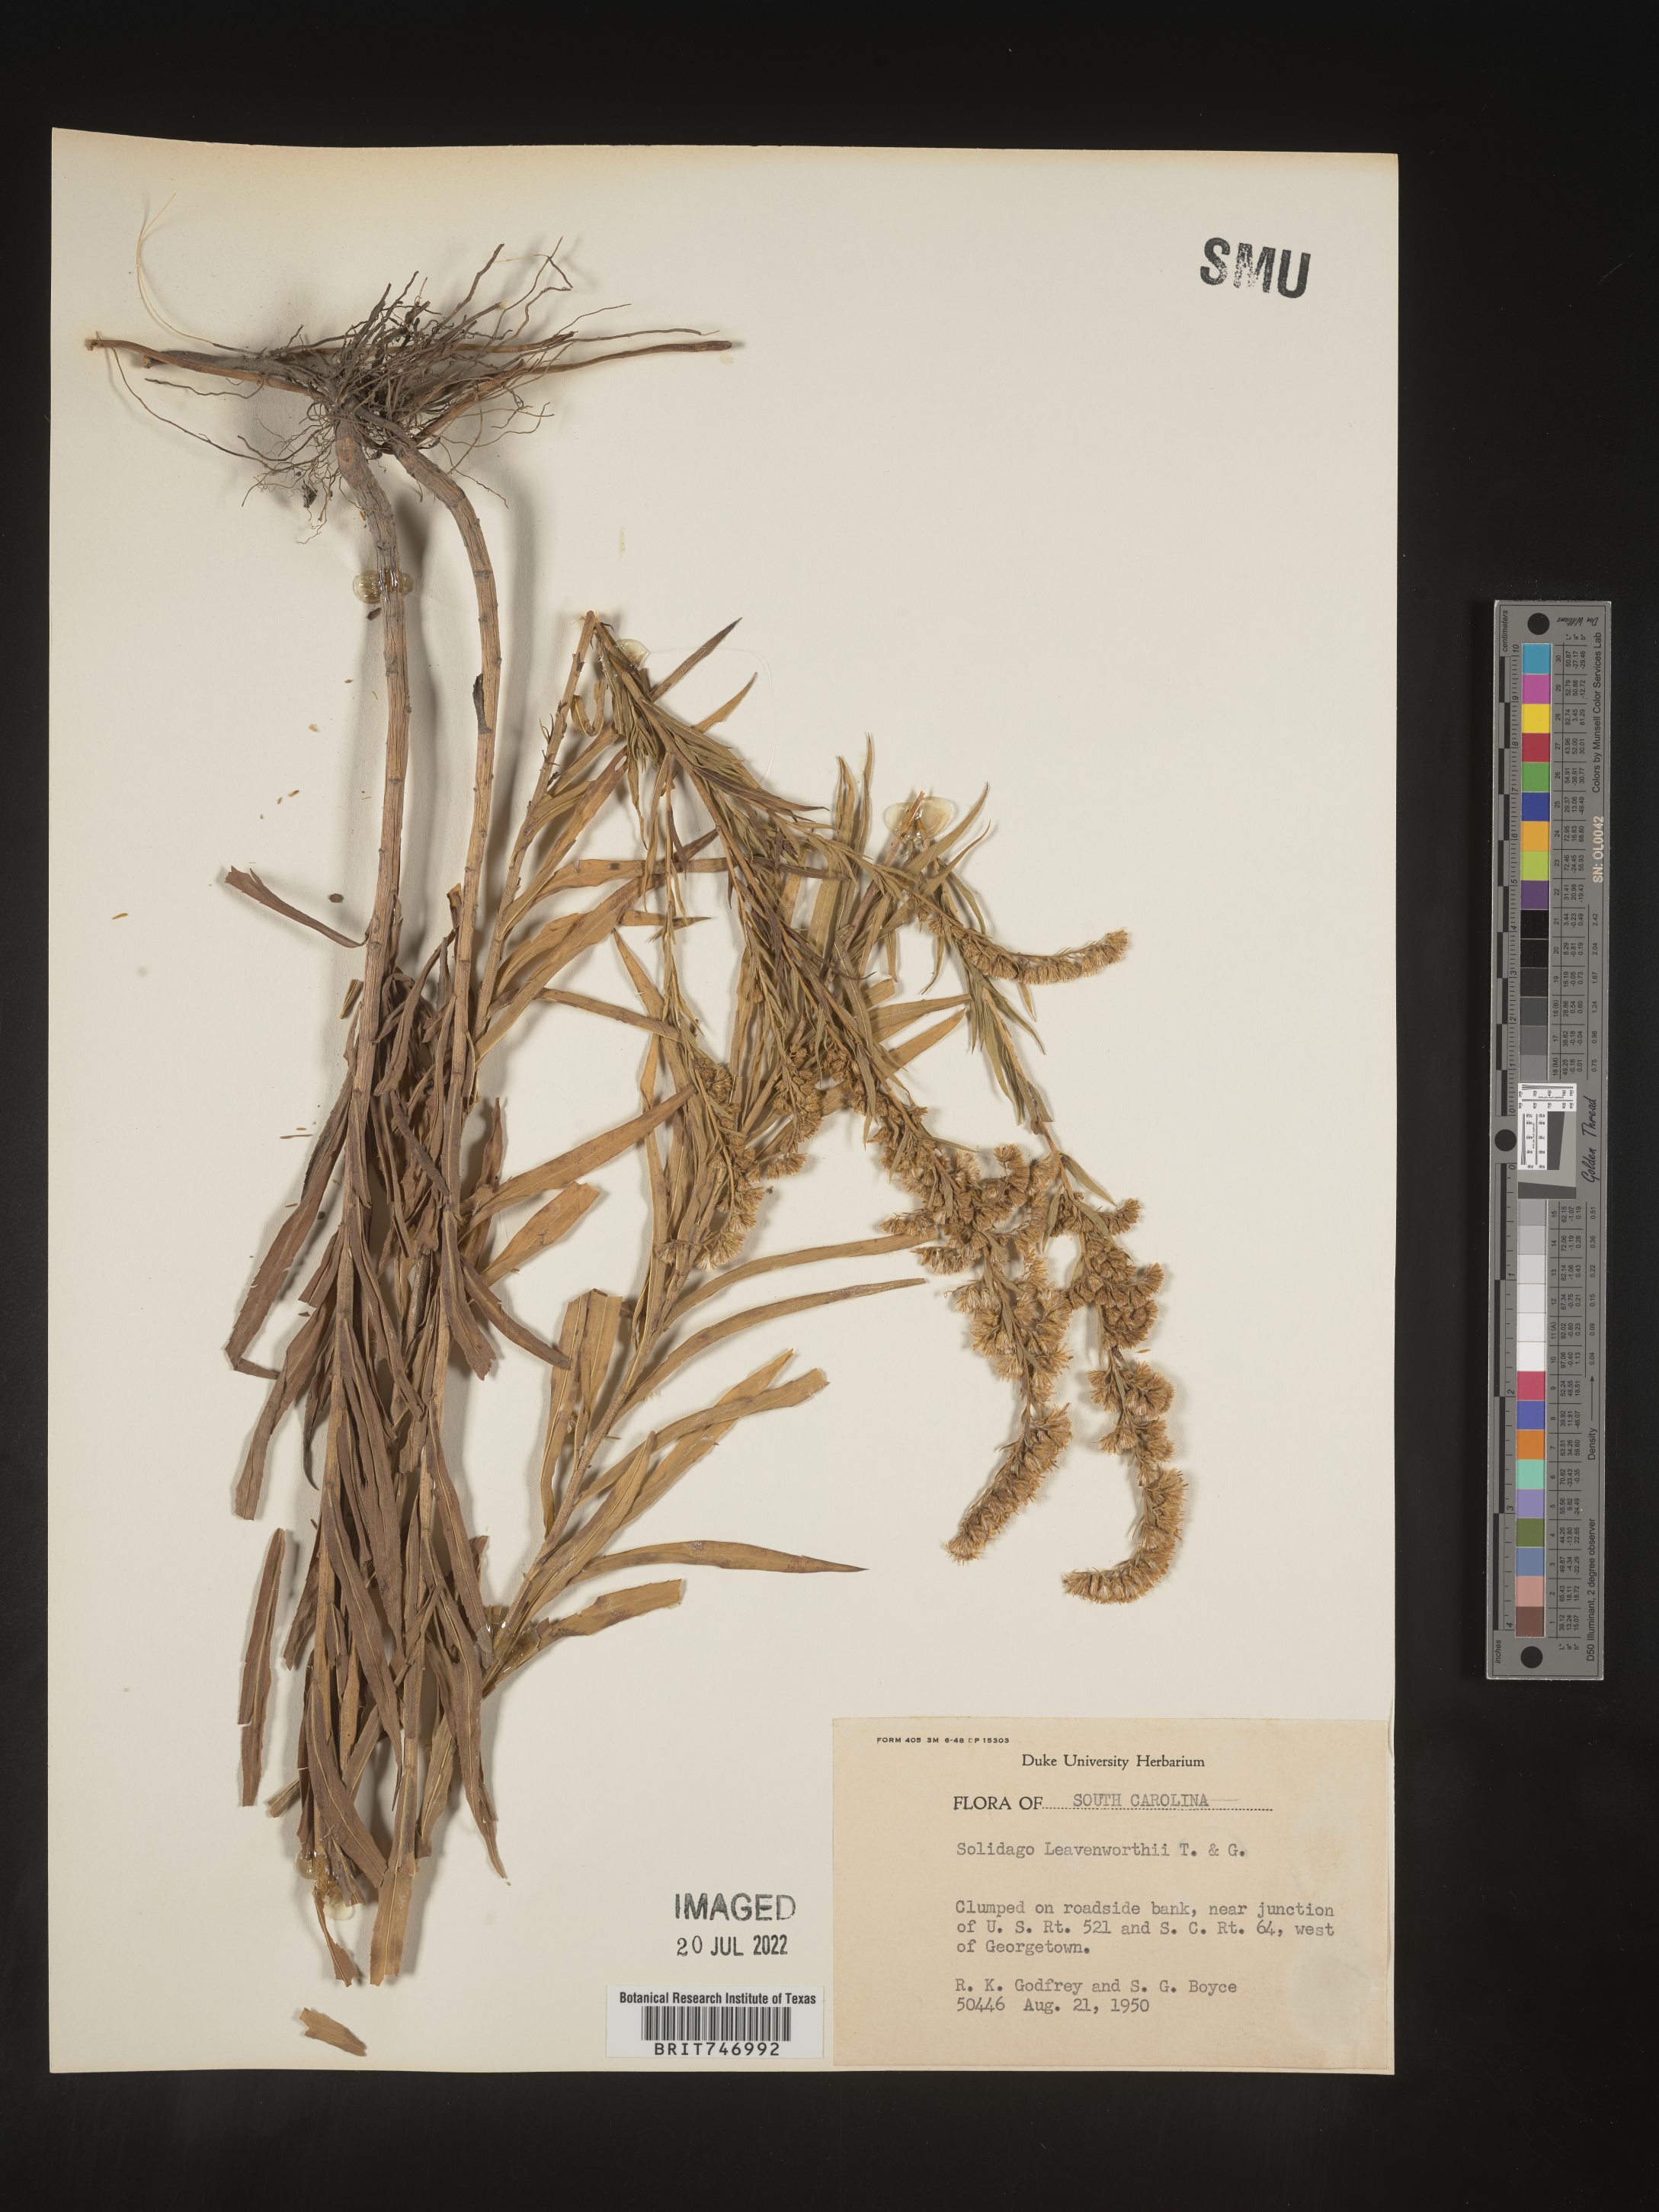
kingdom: Plantae
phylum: Tracheophyta
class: Magnoliopsida
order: Asterales
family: Asteraceae
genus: Solidago
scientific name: Solidago leavenworthii
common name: Leavenworth's goldenrod
